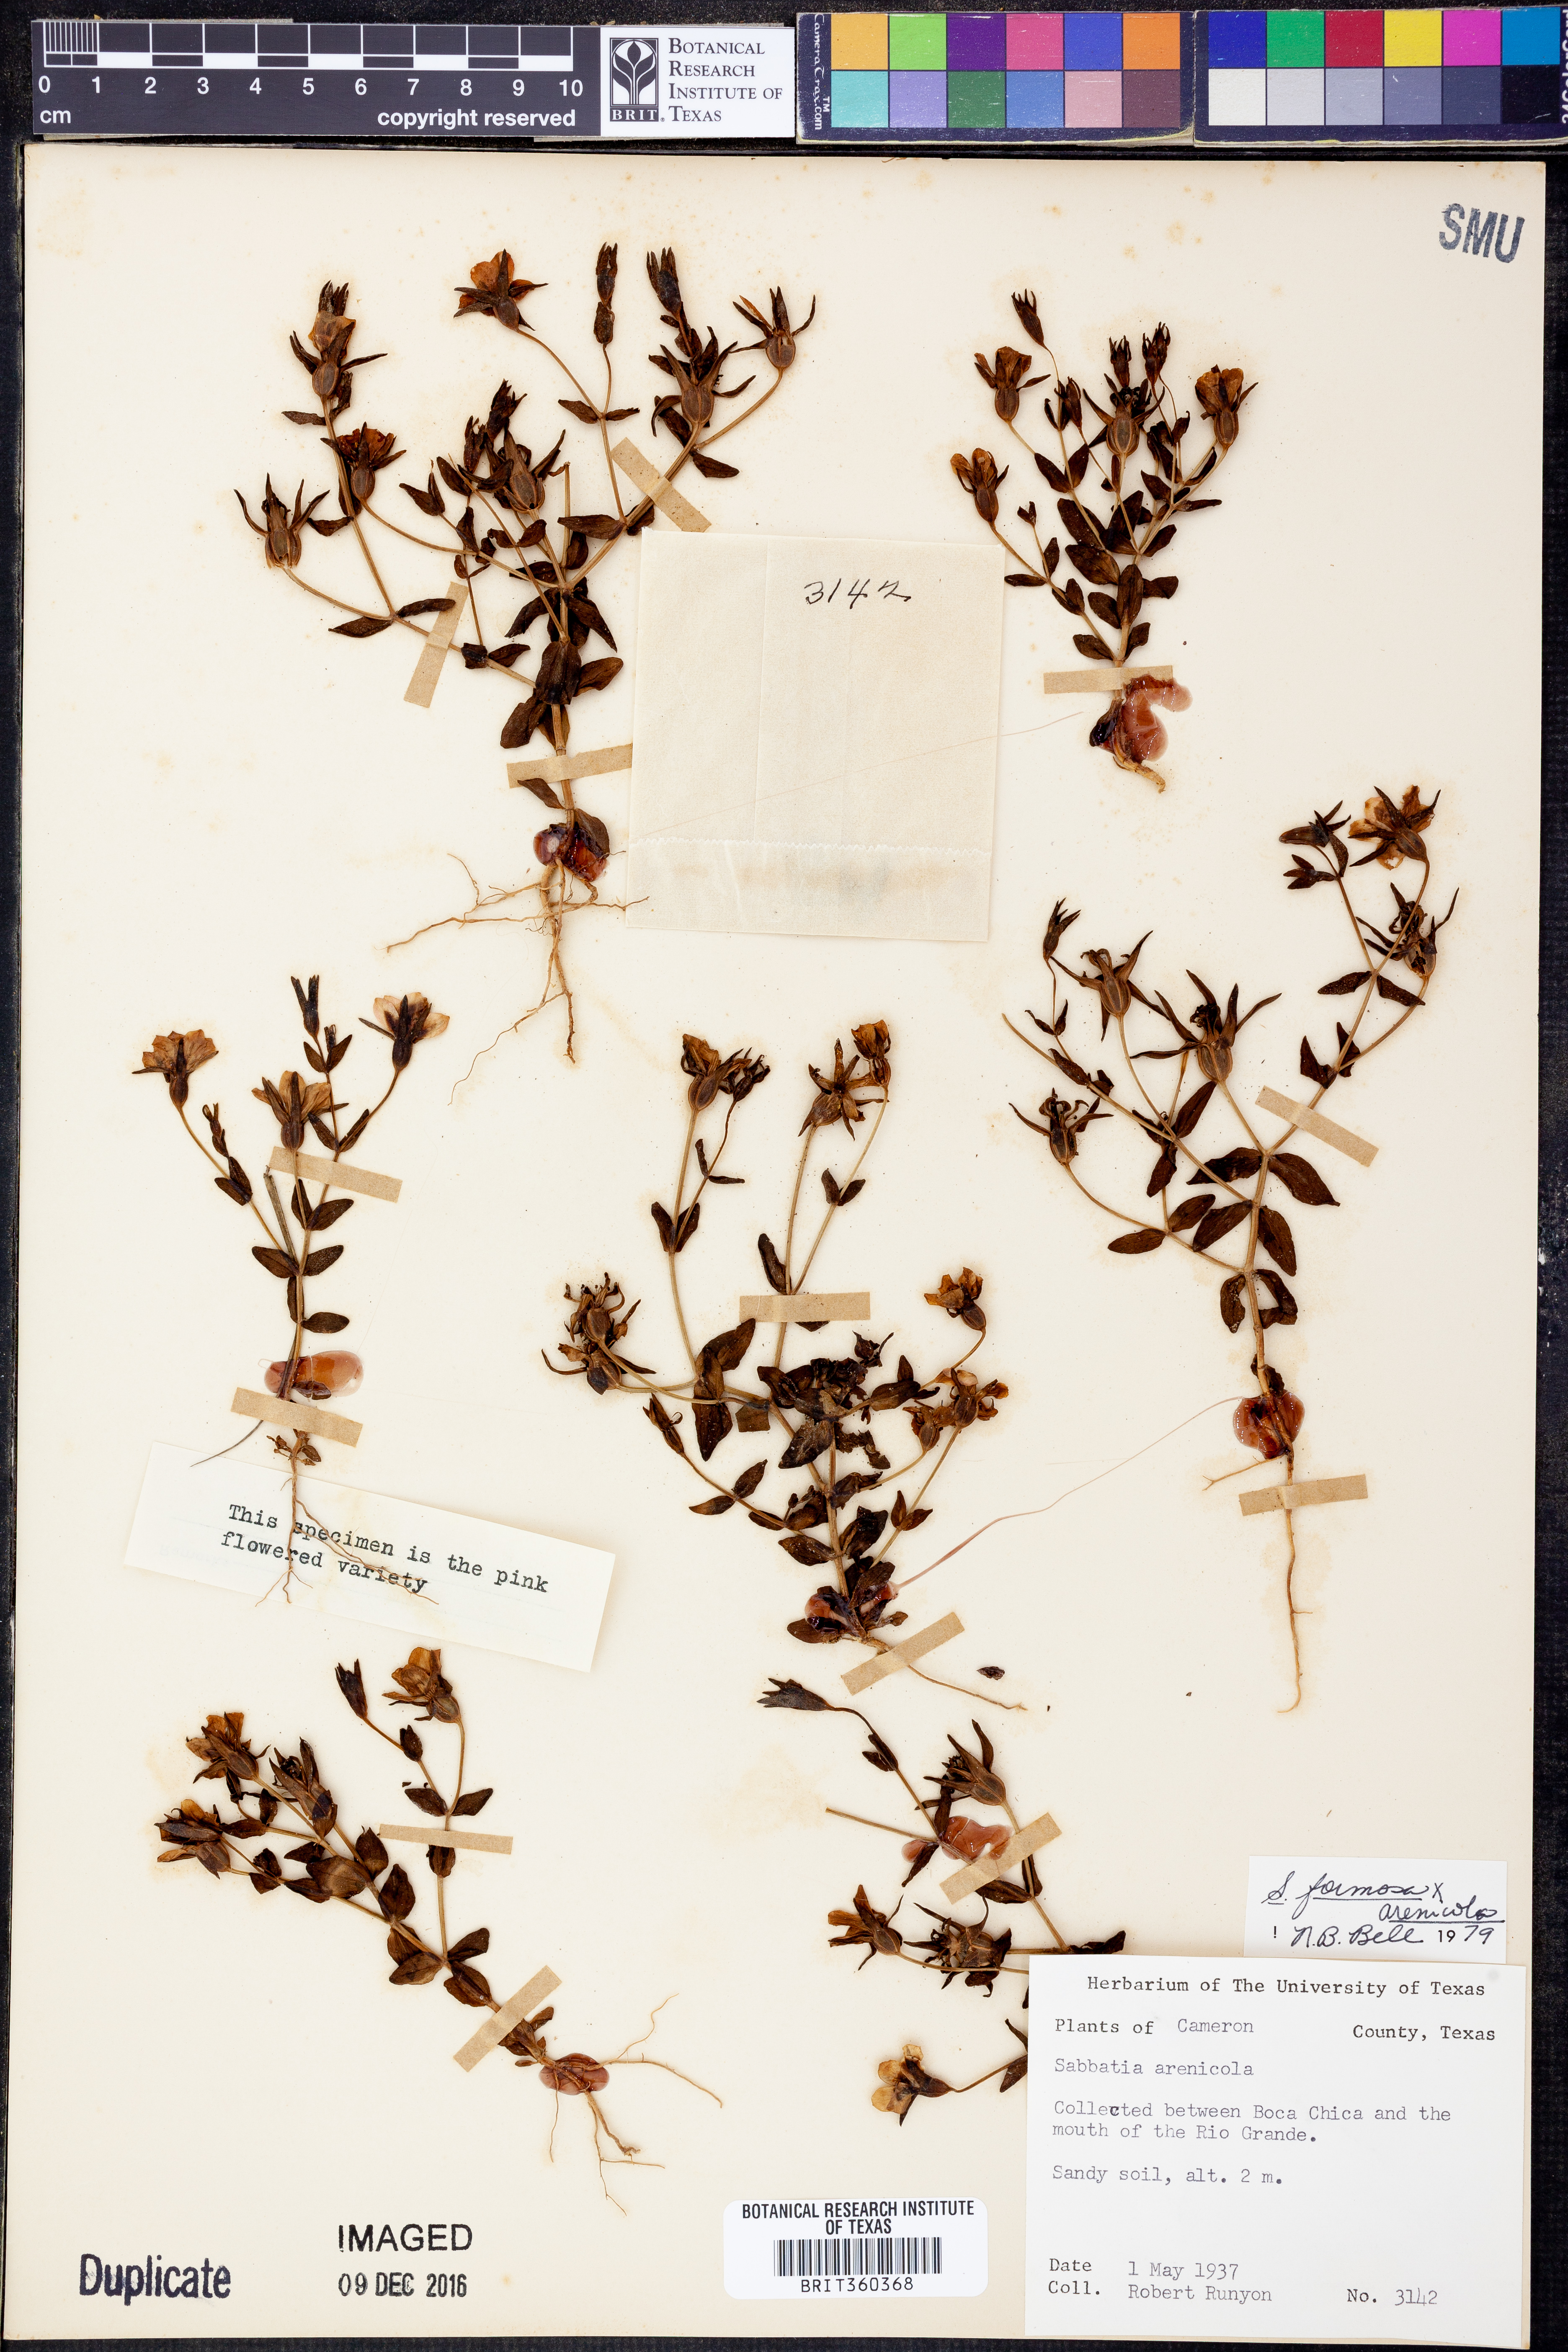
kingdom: Plantae
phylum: Tracheophyta
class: Magnoliopsida
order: Gentianales
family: Gentianaceae
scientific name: Gentianaceae
